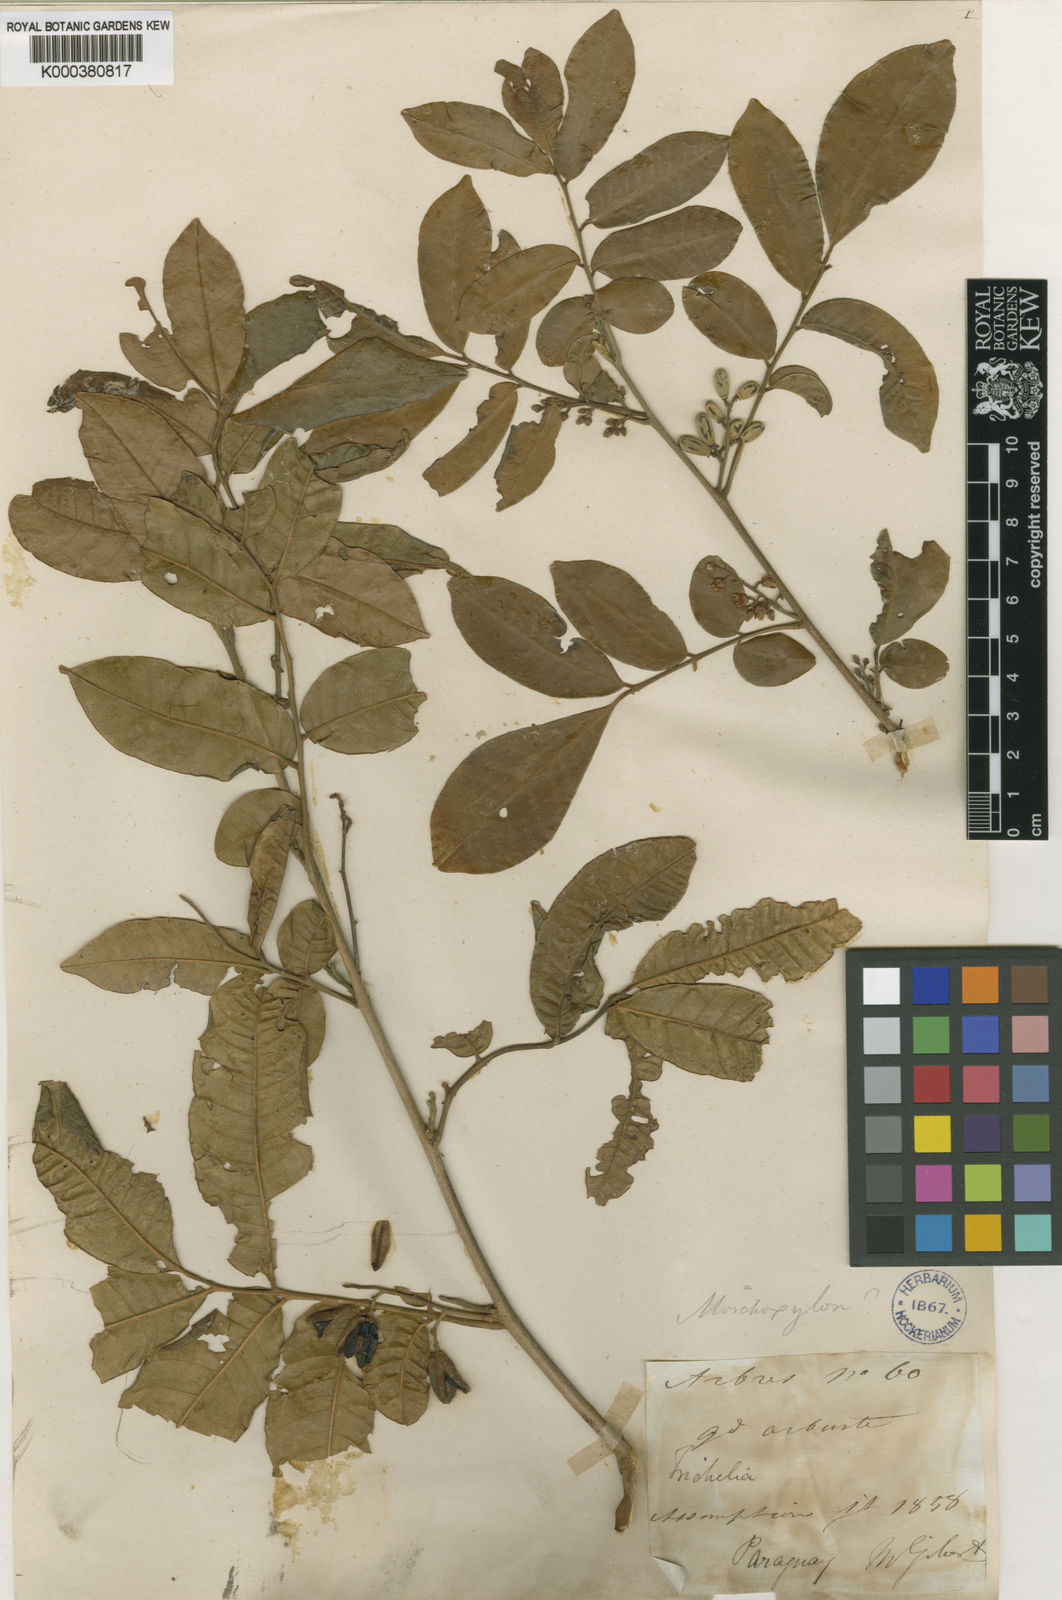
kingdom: Plantae
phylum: Tracheophyta
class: Magnoliopsida
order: Sapindales
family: Meliaceae
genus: Trichilia
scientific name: Trichilia catigua
